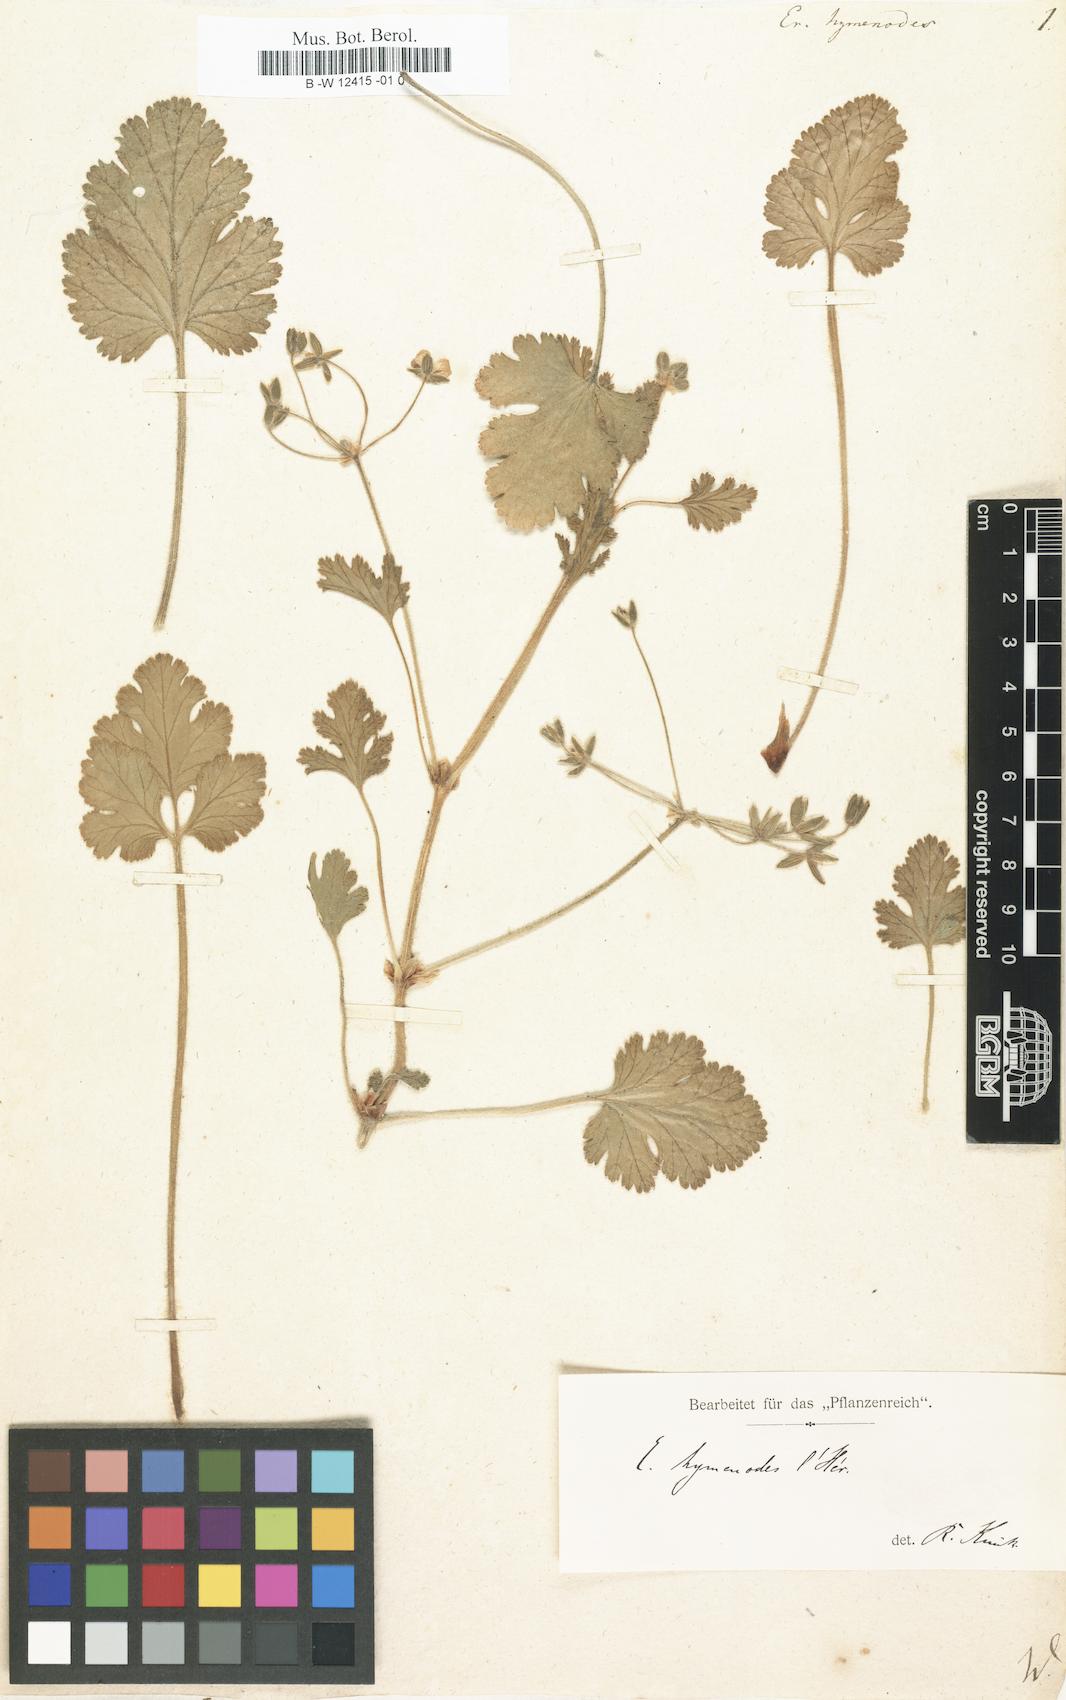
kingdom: Plantae
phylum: Tracheophyta
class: Magnoliopsida
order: Geraniales
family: Geraniaceae
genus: Erodium
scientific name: Erodium trifolium
